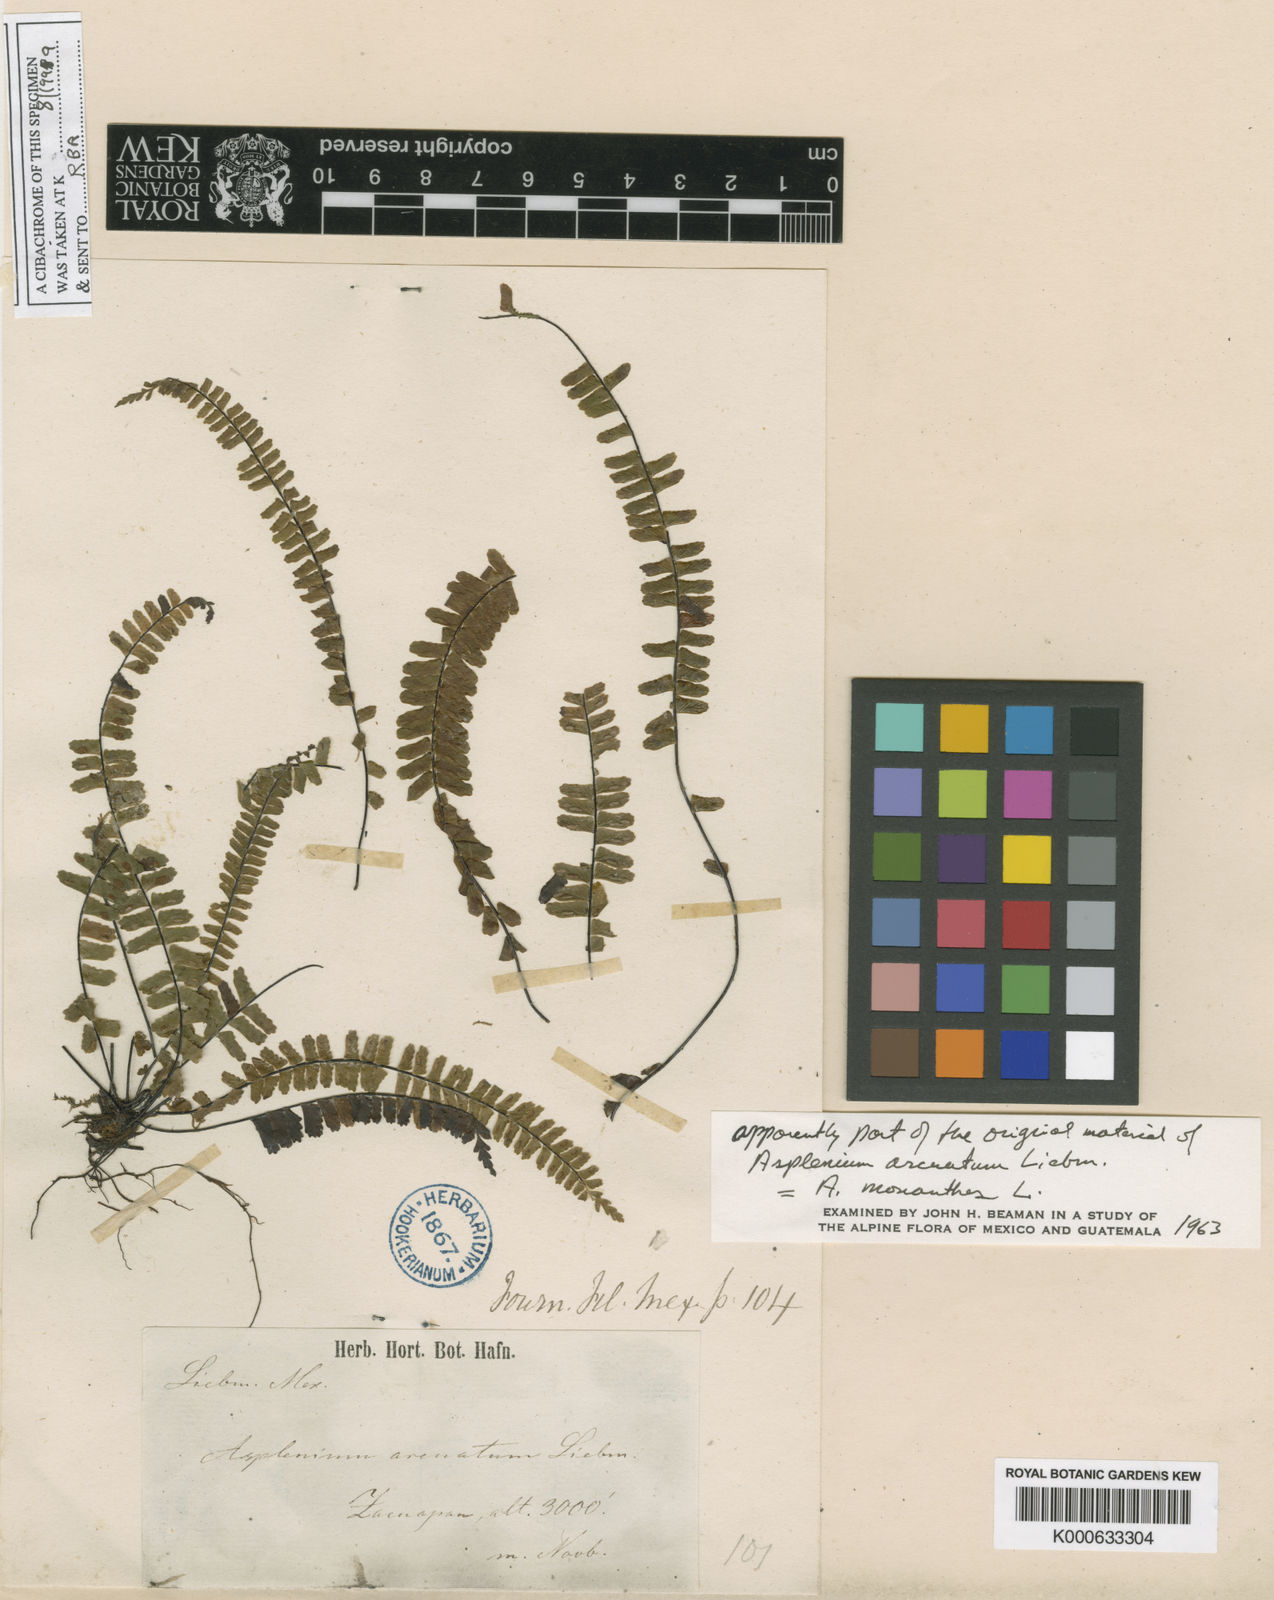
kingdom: Plantae
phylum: Tracheophyta
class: Polypodiopsida
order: Polypodiales
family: Aspleniaceae
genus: Asplenium
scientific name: Asplenium monanthes
